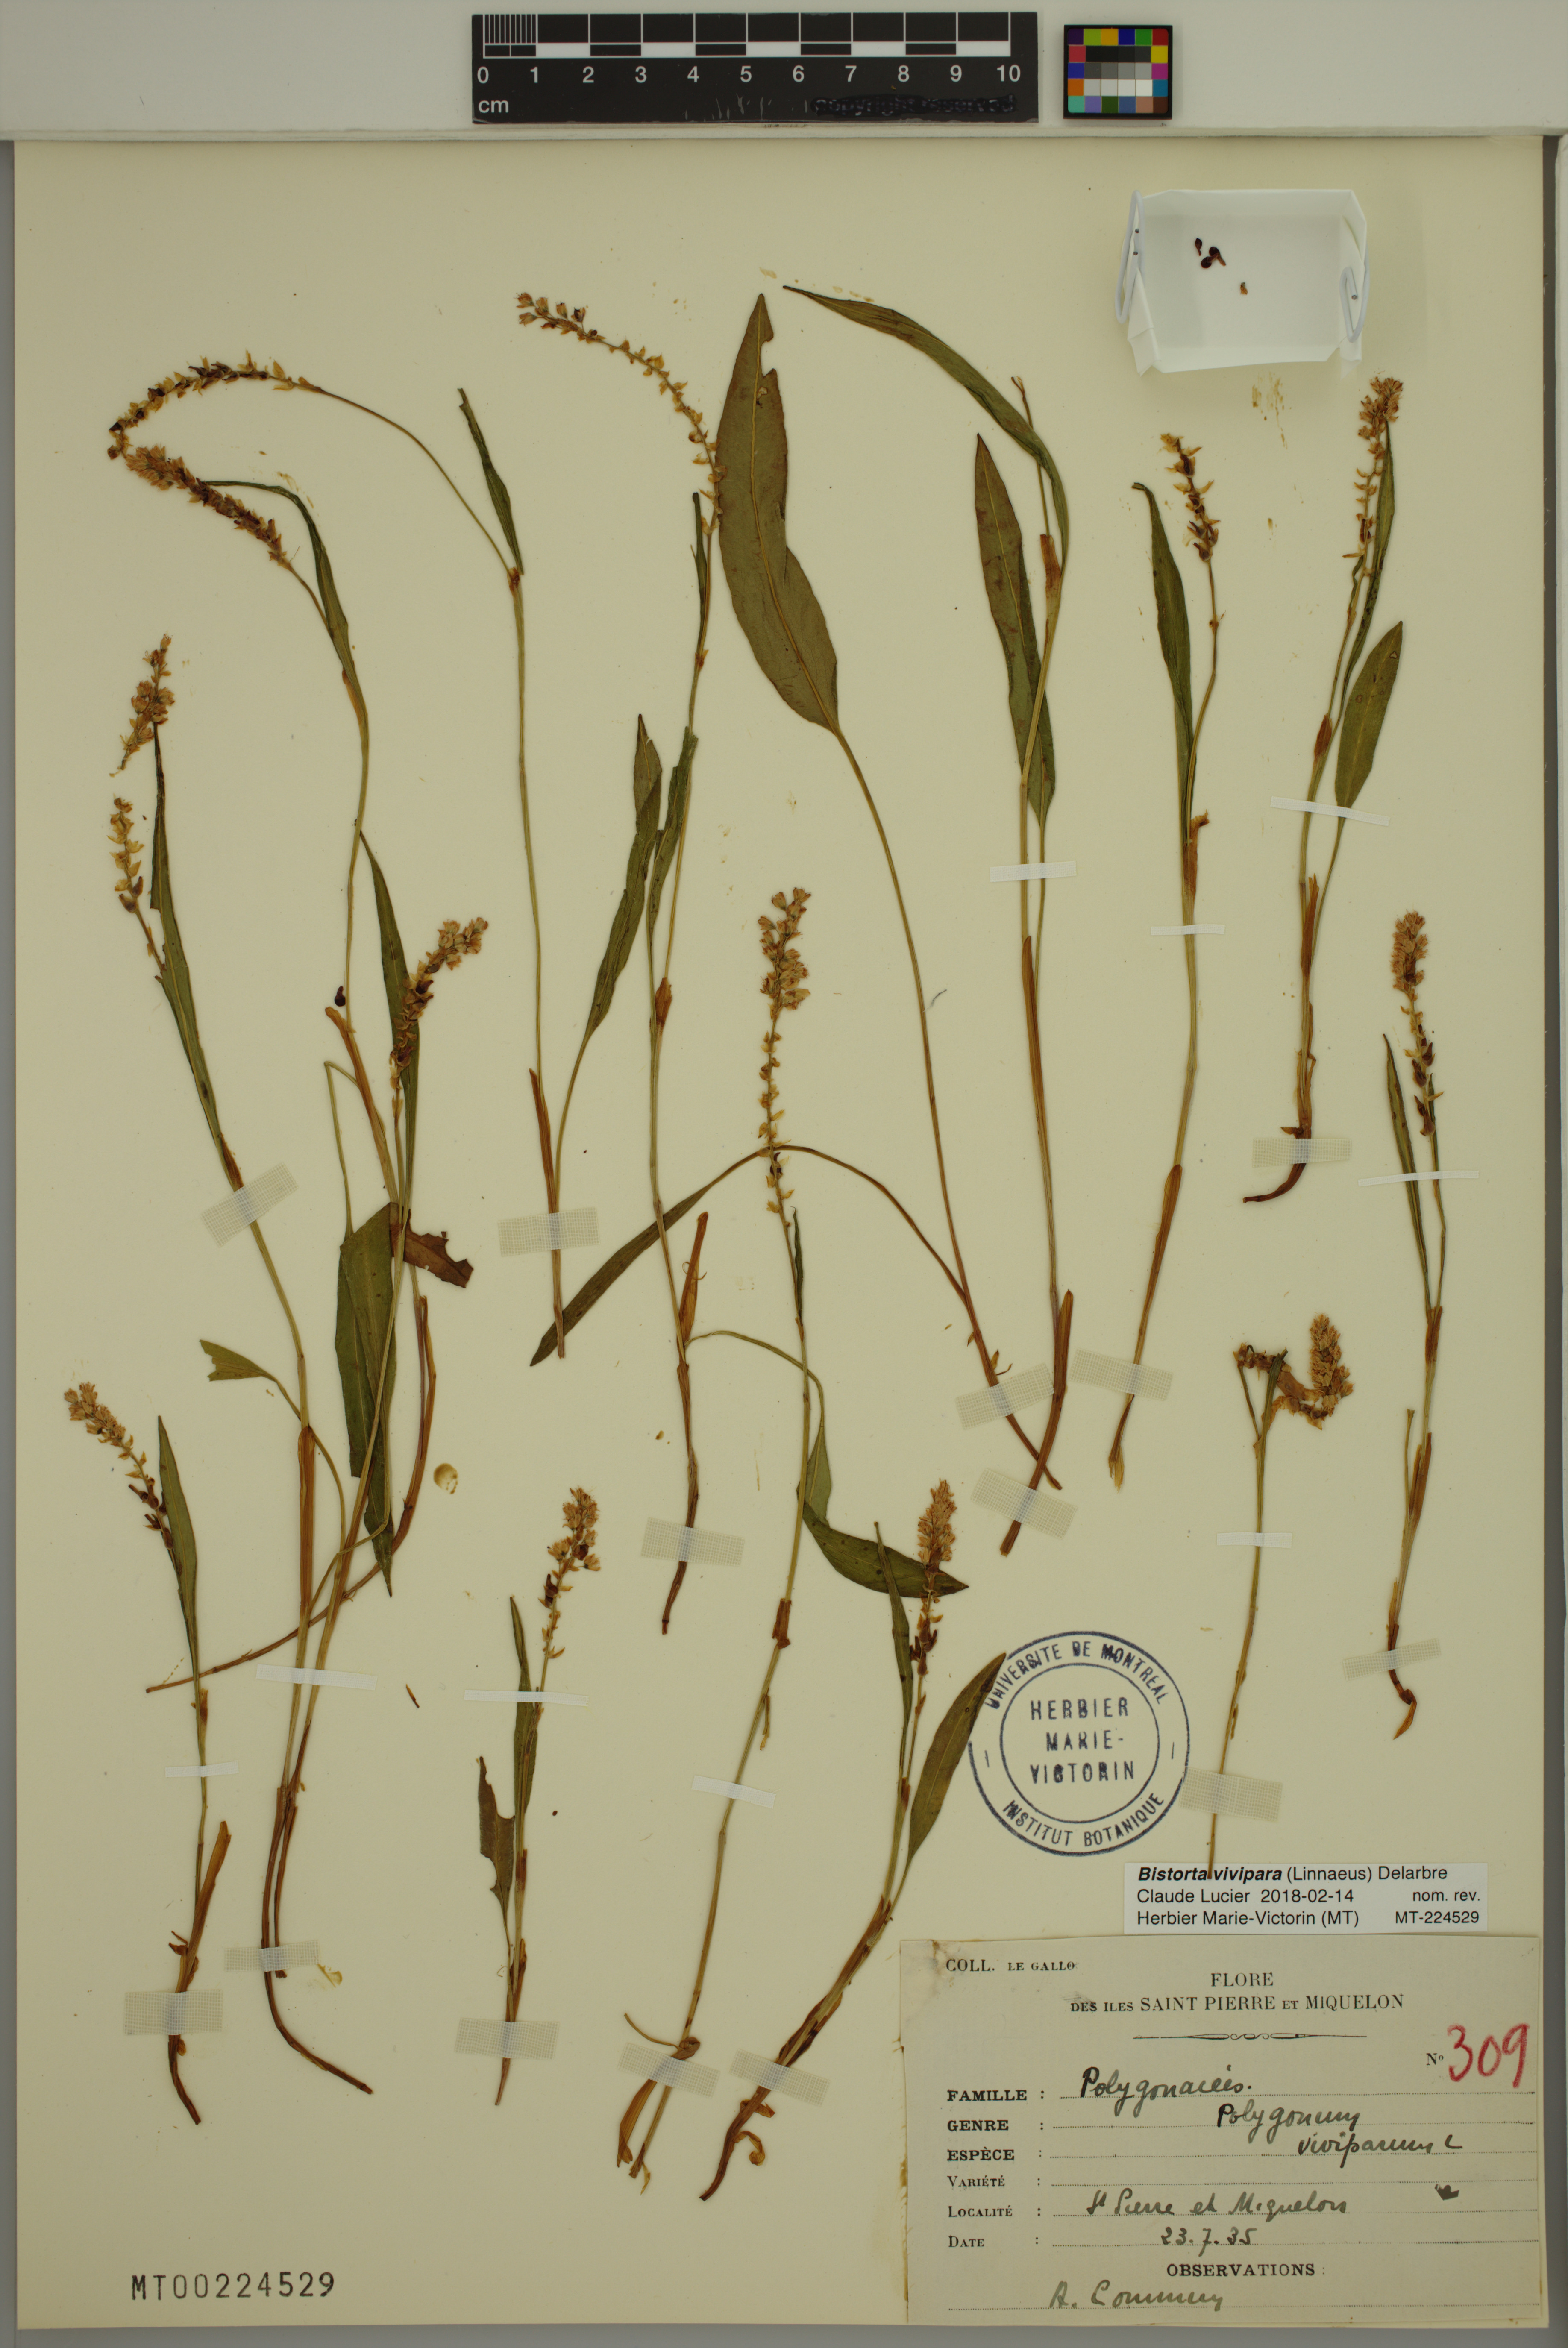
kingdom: Plantae
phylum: Tracheophyta
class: Magnoliopsida
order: Caryophyllales
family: Polygonaceae
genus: Bistorta
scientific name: Bistorta vivipara
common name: Alpine bistort
